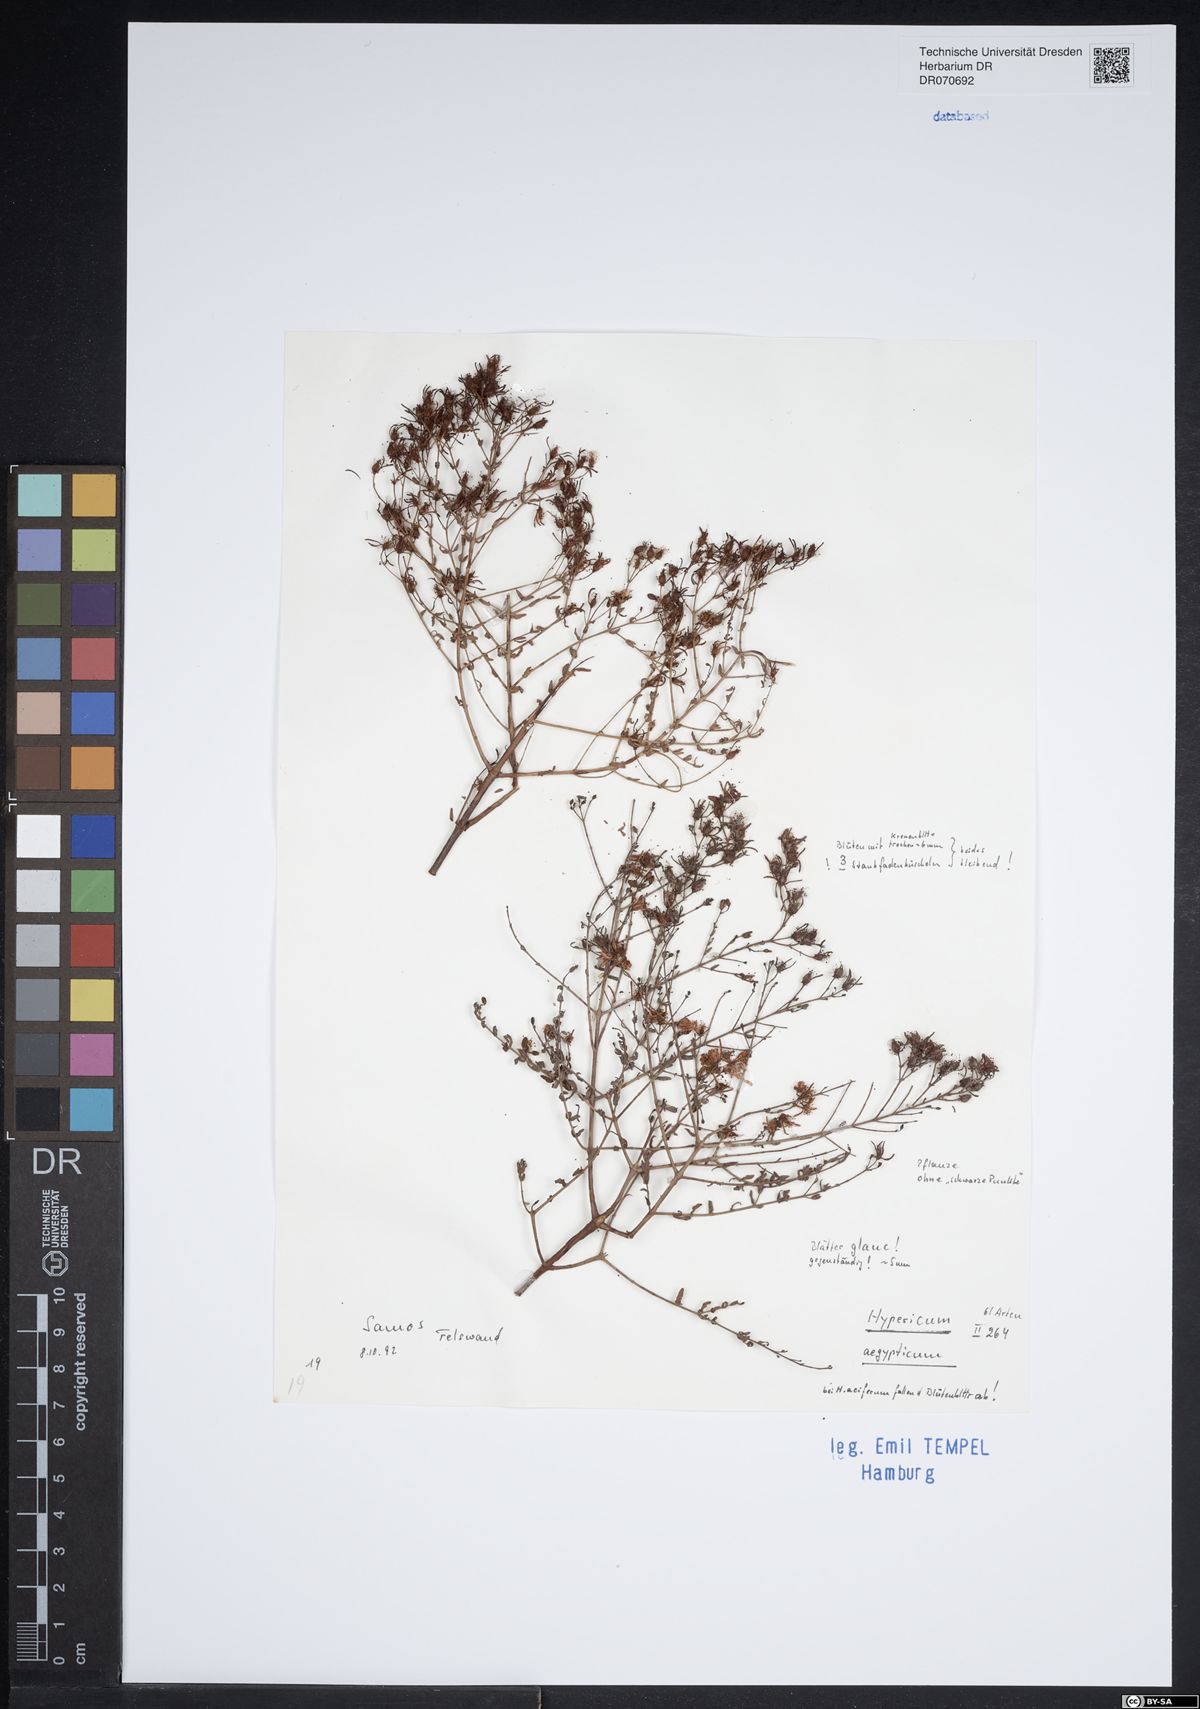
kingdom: Plantae
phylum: Tracheophyta
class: Magnoliopsida
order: Malpighiales
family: Hypericaceae
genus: Hypericum
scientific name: Hypericum aegypticum
